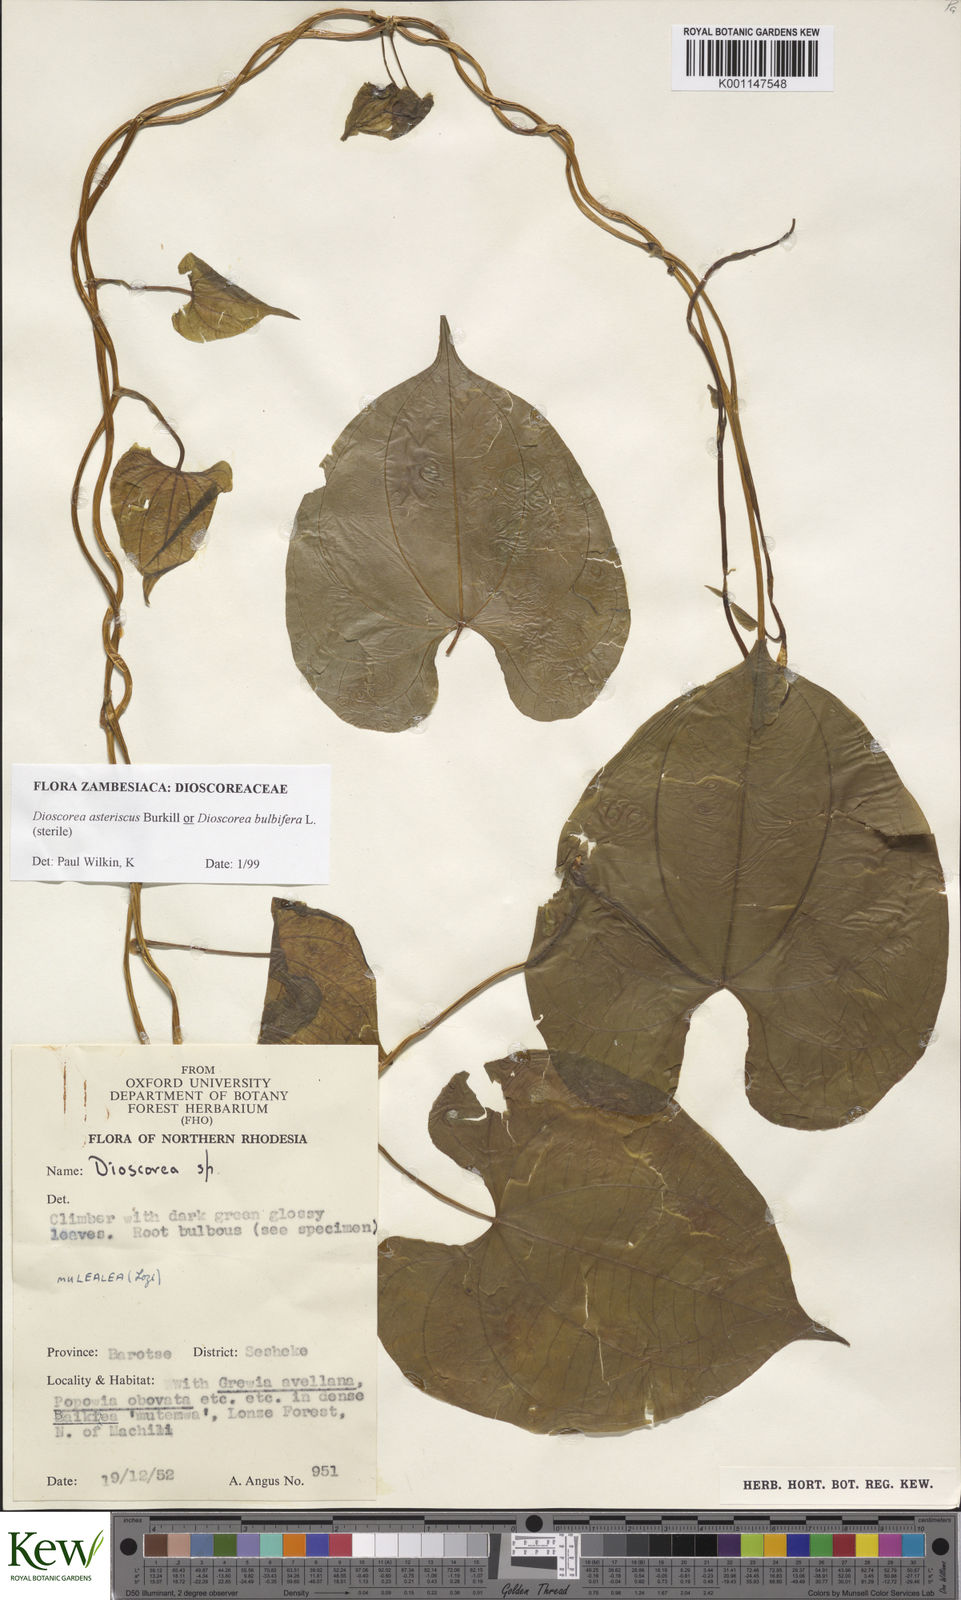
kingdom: Plantae
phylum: Tracheophyta
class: Liliopsida
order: Dioscoreales
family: Dioscoreaceae
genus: Dioscorea
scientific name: Dioscorea asteriscus
